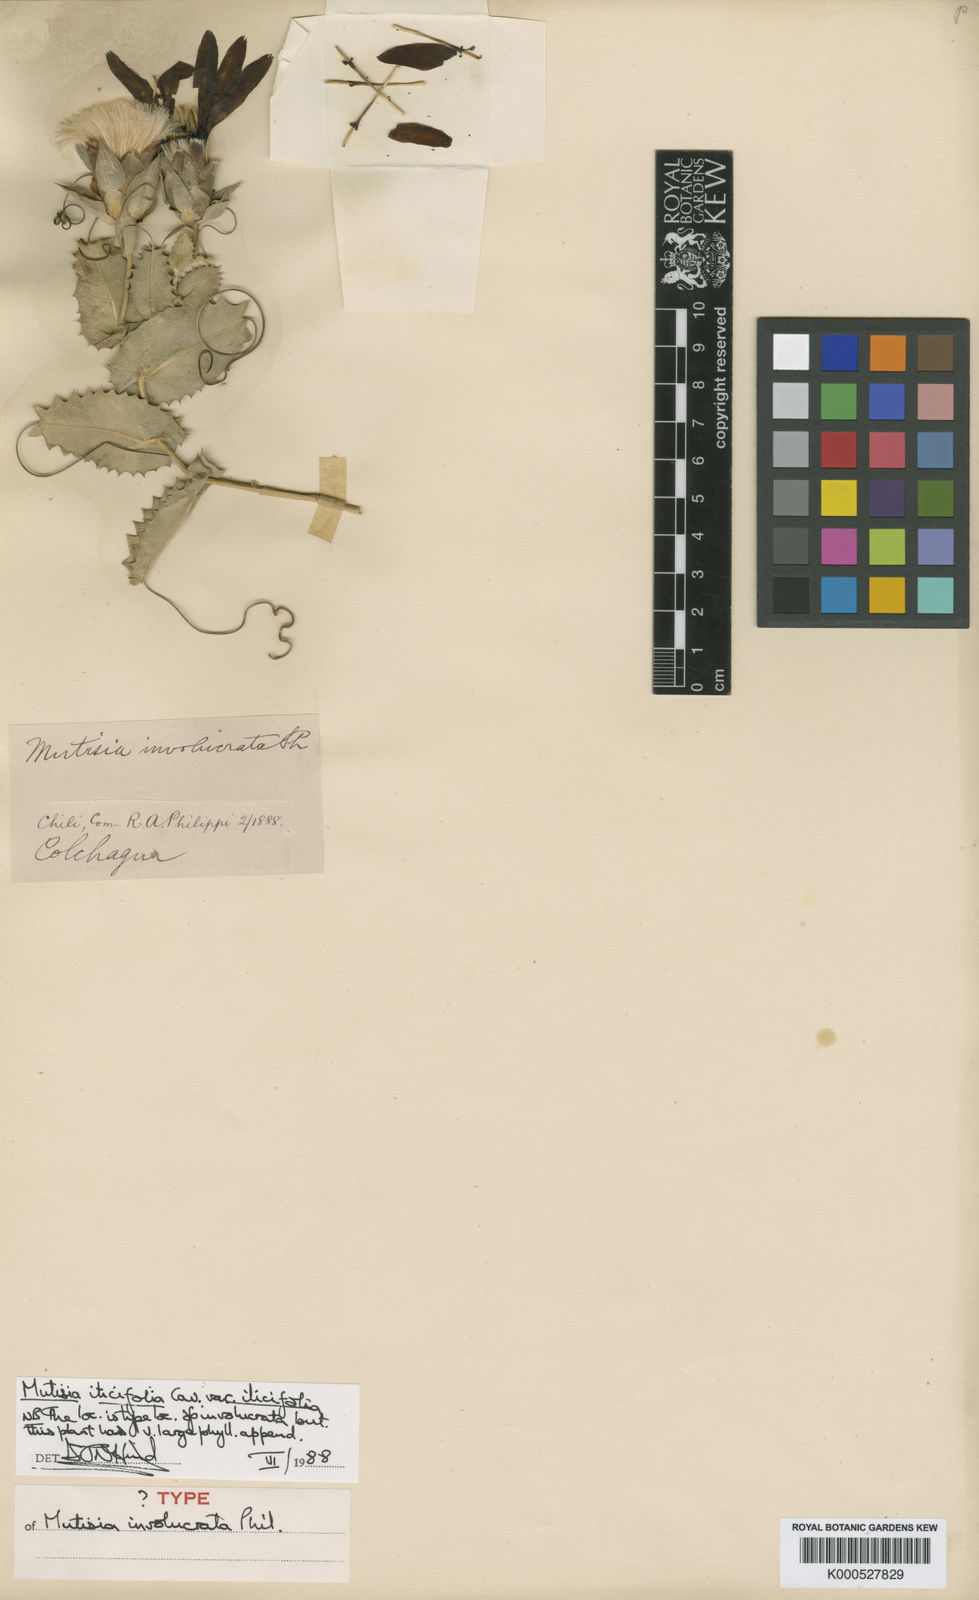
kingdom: Plantae
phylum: Tracheophyta
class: Magnoliopsida
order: Asterales
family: Asteraceae
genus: Mutisia
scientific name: Mutisia ilicifolia
